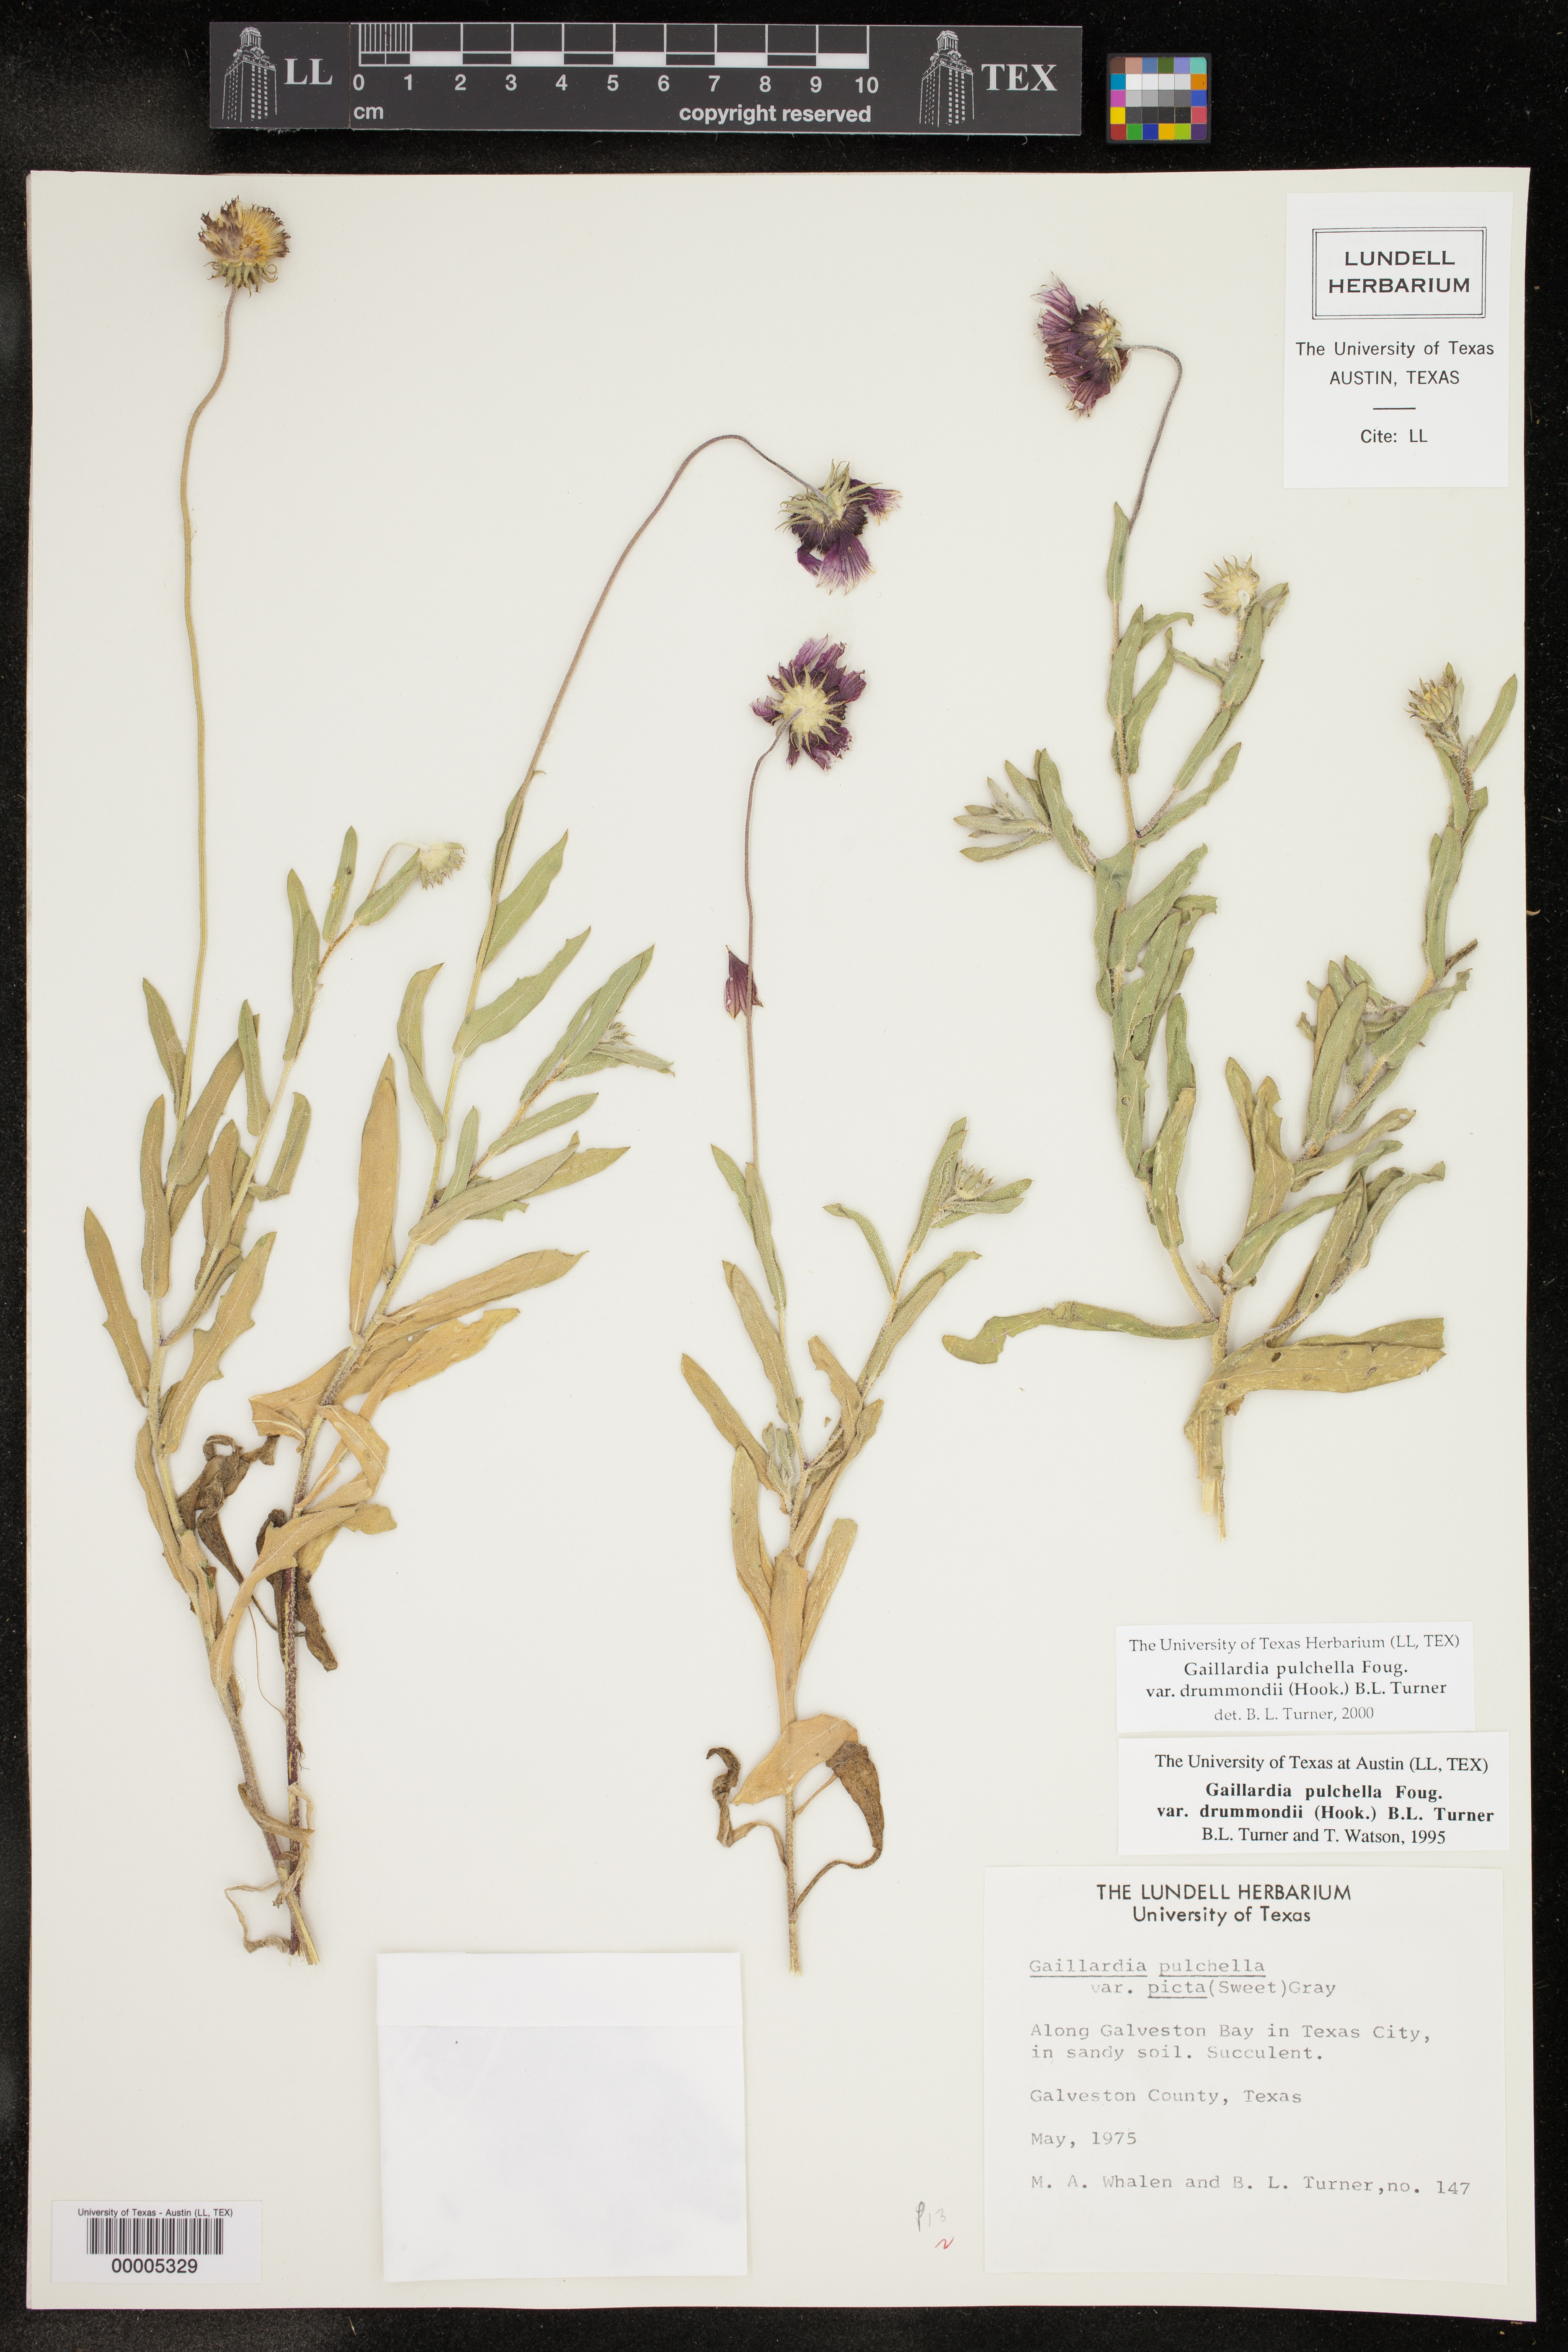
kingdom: Plantae
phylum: Tracheophyta
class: Magnoliopsida
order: Asterales
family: Asteraceae
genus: Gaillardia
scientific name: Gaillardia pulchella
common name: Firewheel
